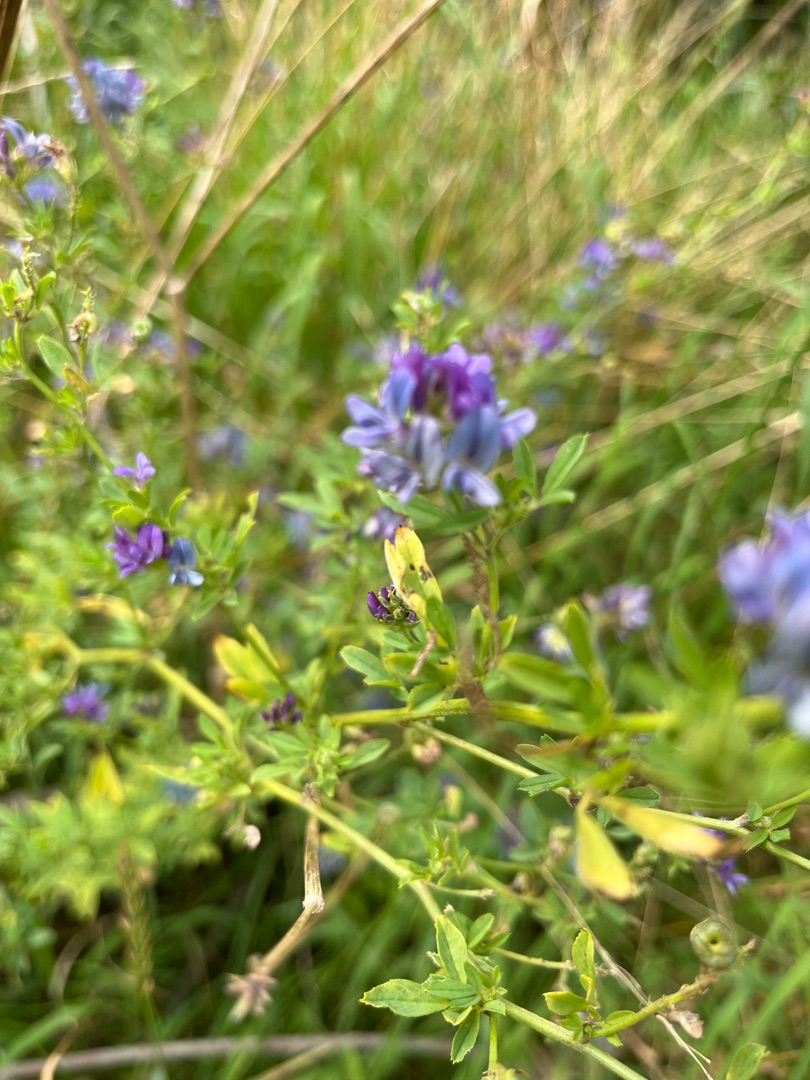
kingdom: Plantae
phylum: Tracheophyta
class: Magnoliopsida
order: Fabales
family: Fabaceae
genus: Medicago
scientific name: Medicago sativa
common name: Foderlucerne
